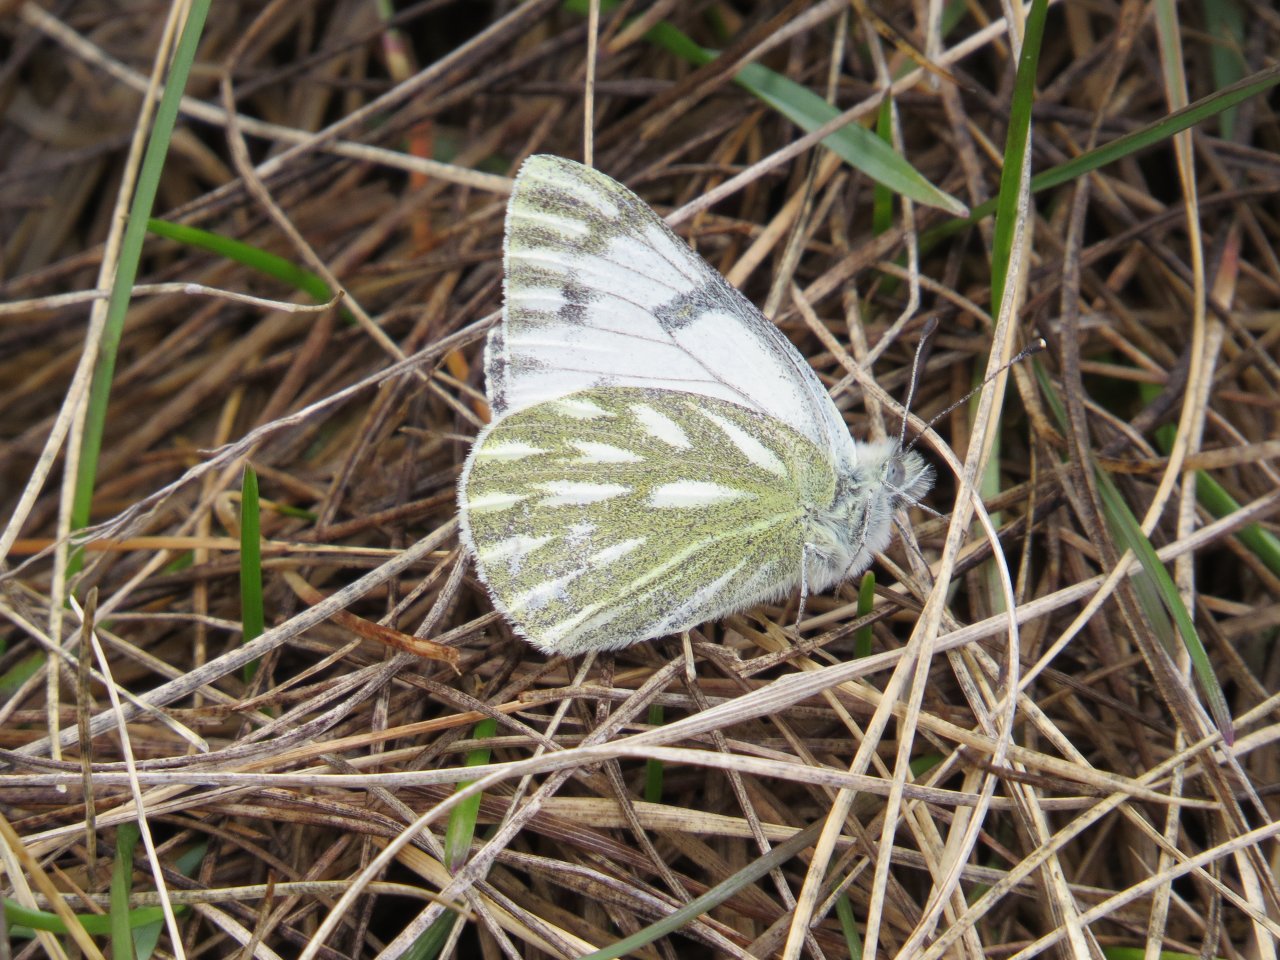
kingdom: Animalia
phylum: Arthropoda
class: Insecta
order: Lepidoptera
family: Pieridae
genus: Pontia
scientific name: Pontia occidentalis
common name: Western White
